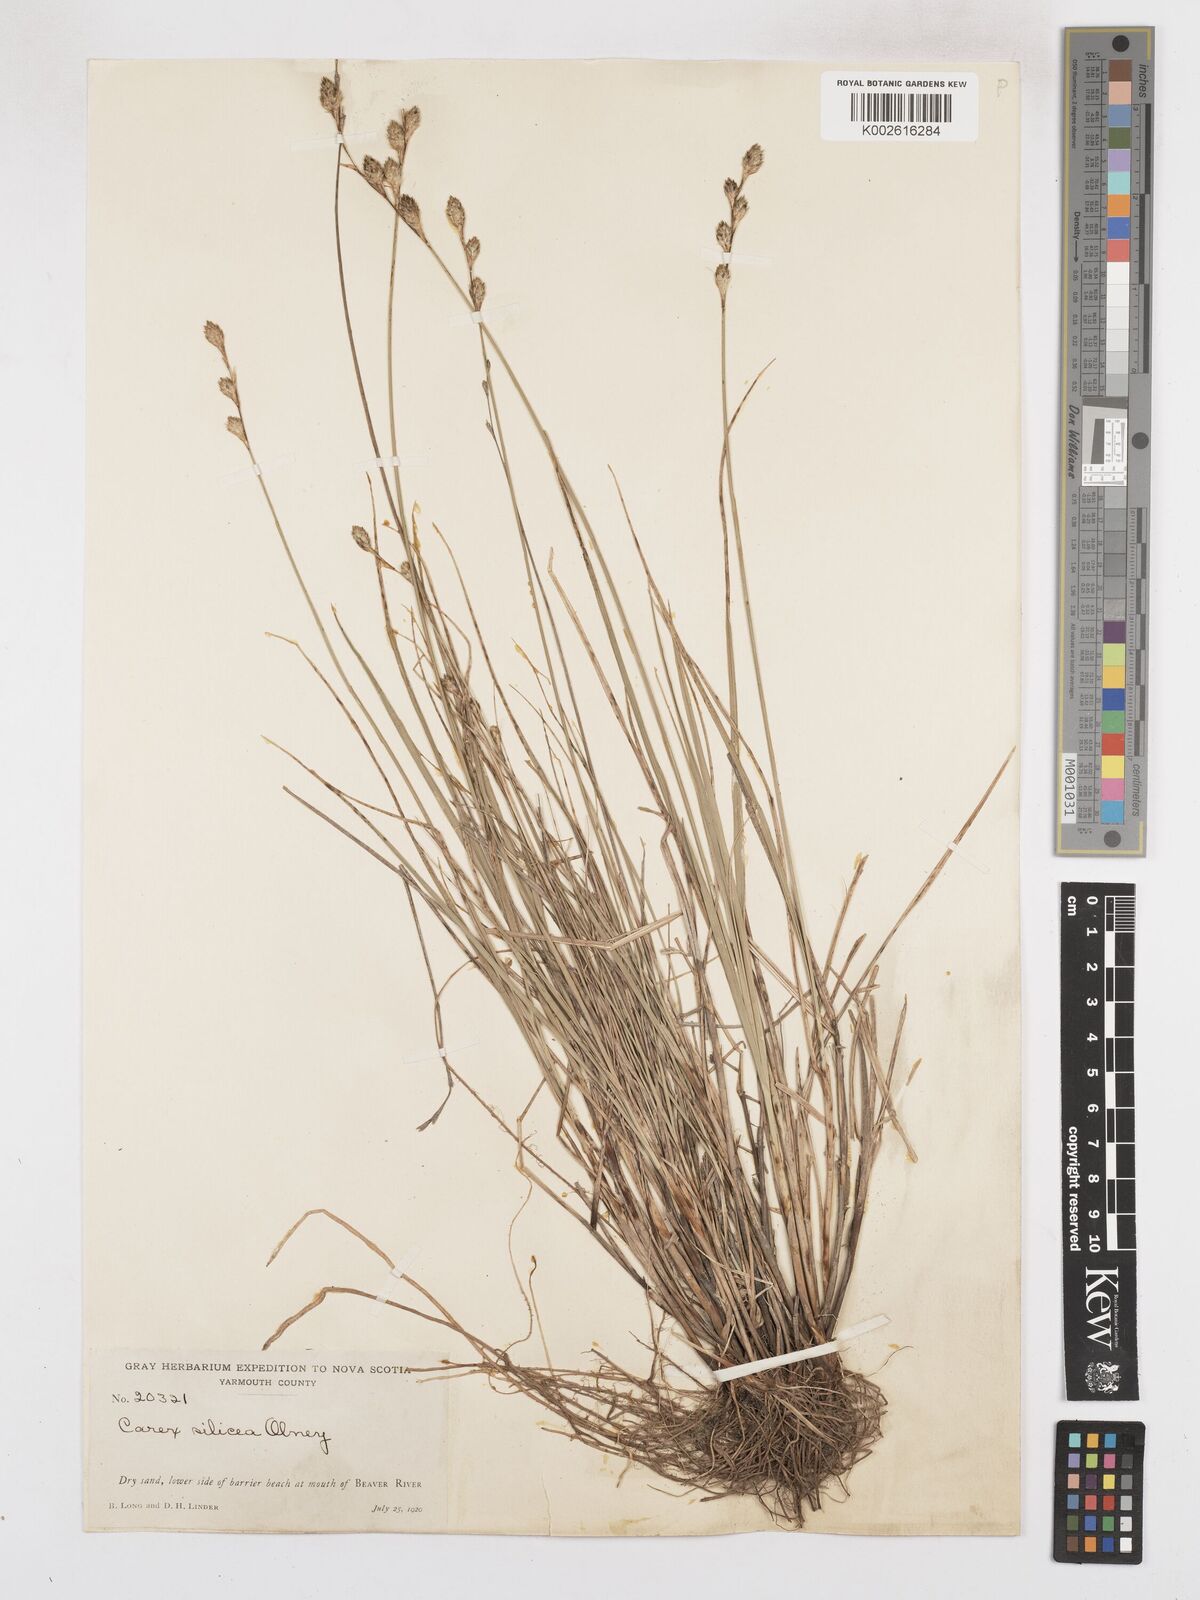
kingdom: Plantae
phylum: Tracheophyta
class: Liliopsida
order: Poales
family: Cyperaceae
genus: Carex
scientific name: Carex silicea
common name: Beach sedge
